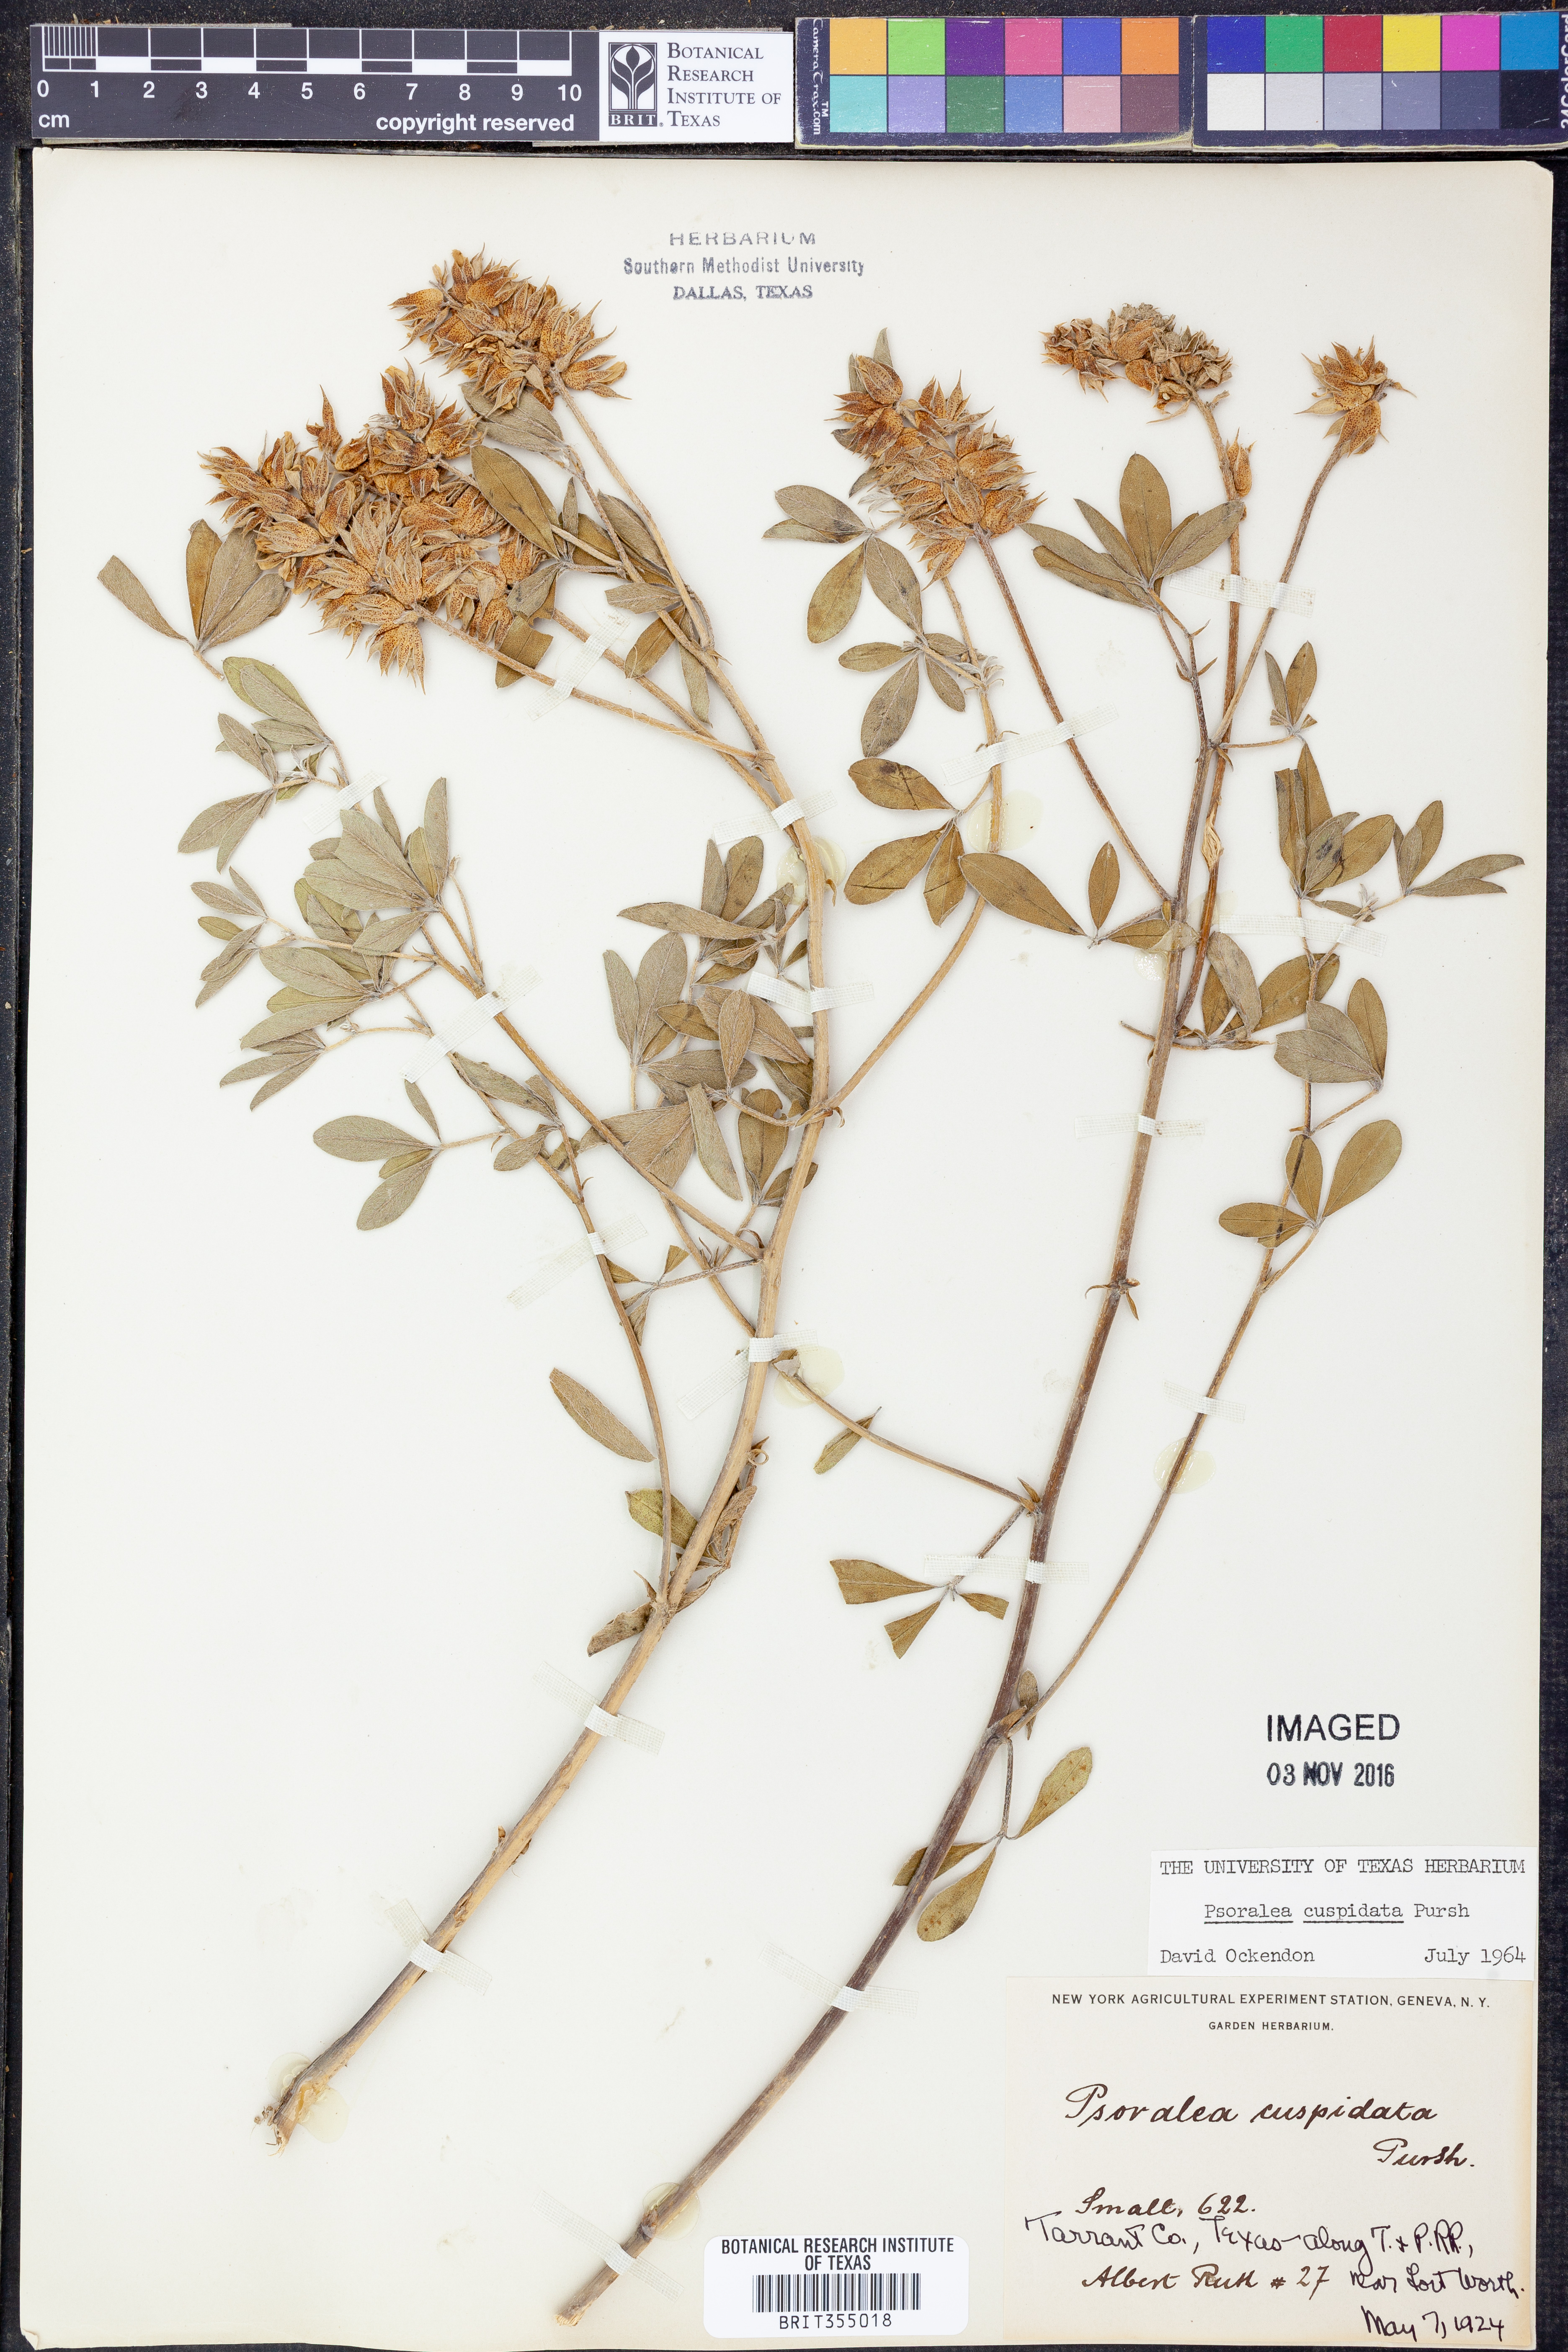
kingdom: Plantae
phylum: Tracheophyta
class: Magnoliopsida
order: Fabales
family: Fabaceae
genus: Pediomelum
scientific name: Pediomelum cuspidatum
